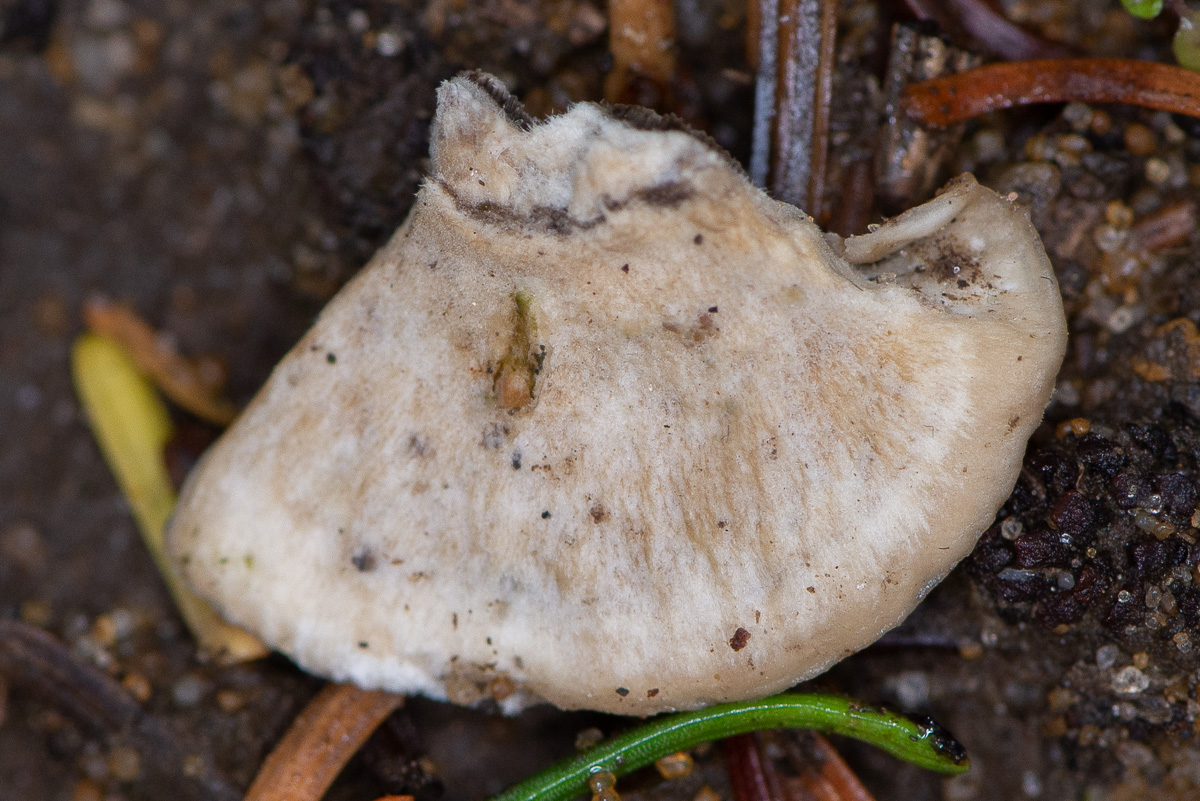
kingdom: Fungi
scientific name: Fungi
